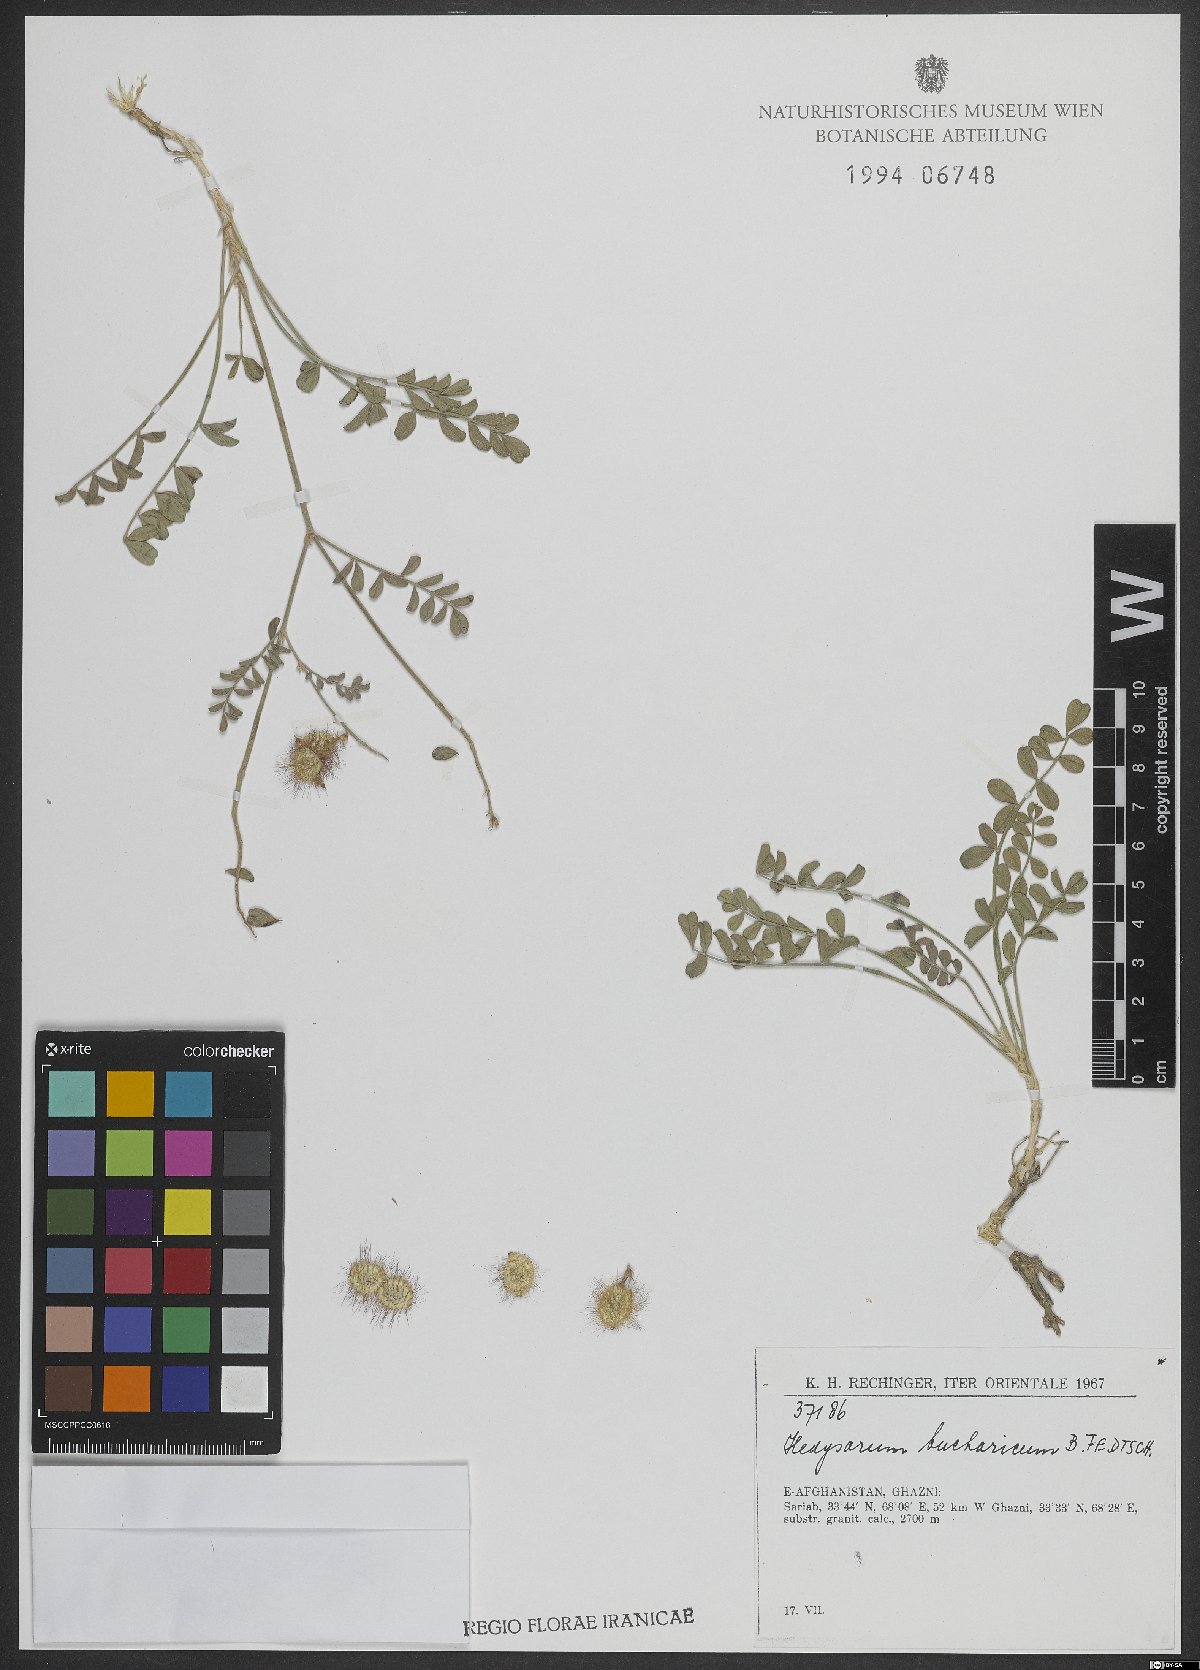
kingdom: Plantae
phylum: Tracheophyta
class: Magnoliopsida
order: Fabales
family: Fabaceae
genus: Hedysarum
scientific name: Hedysarum bucharicum
